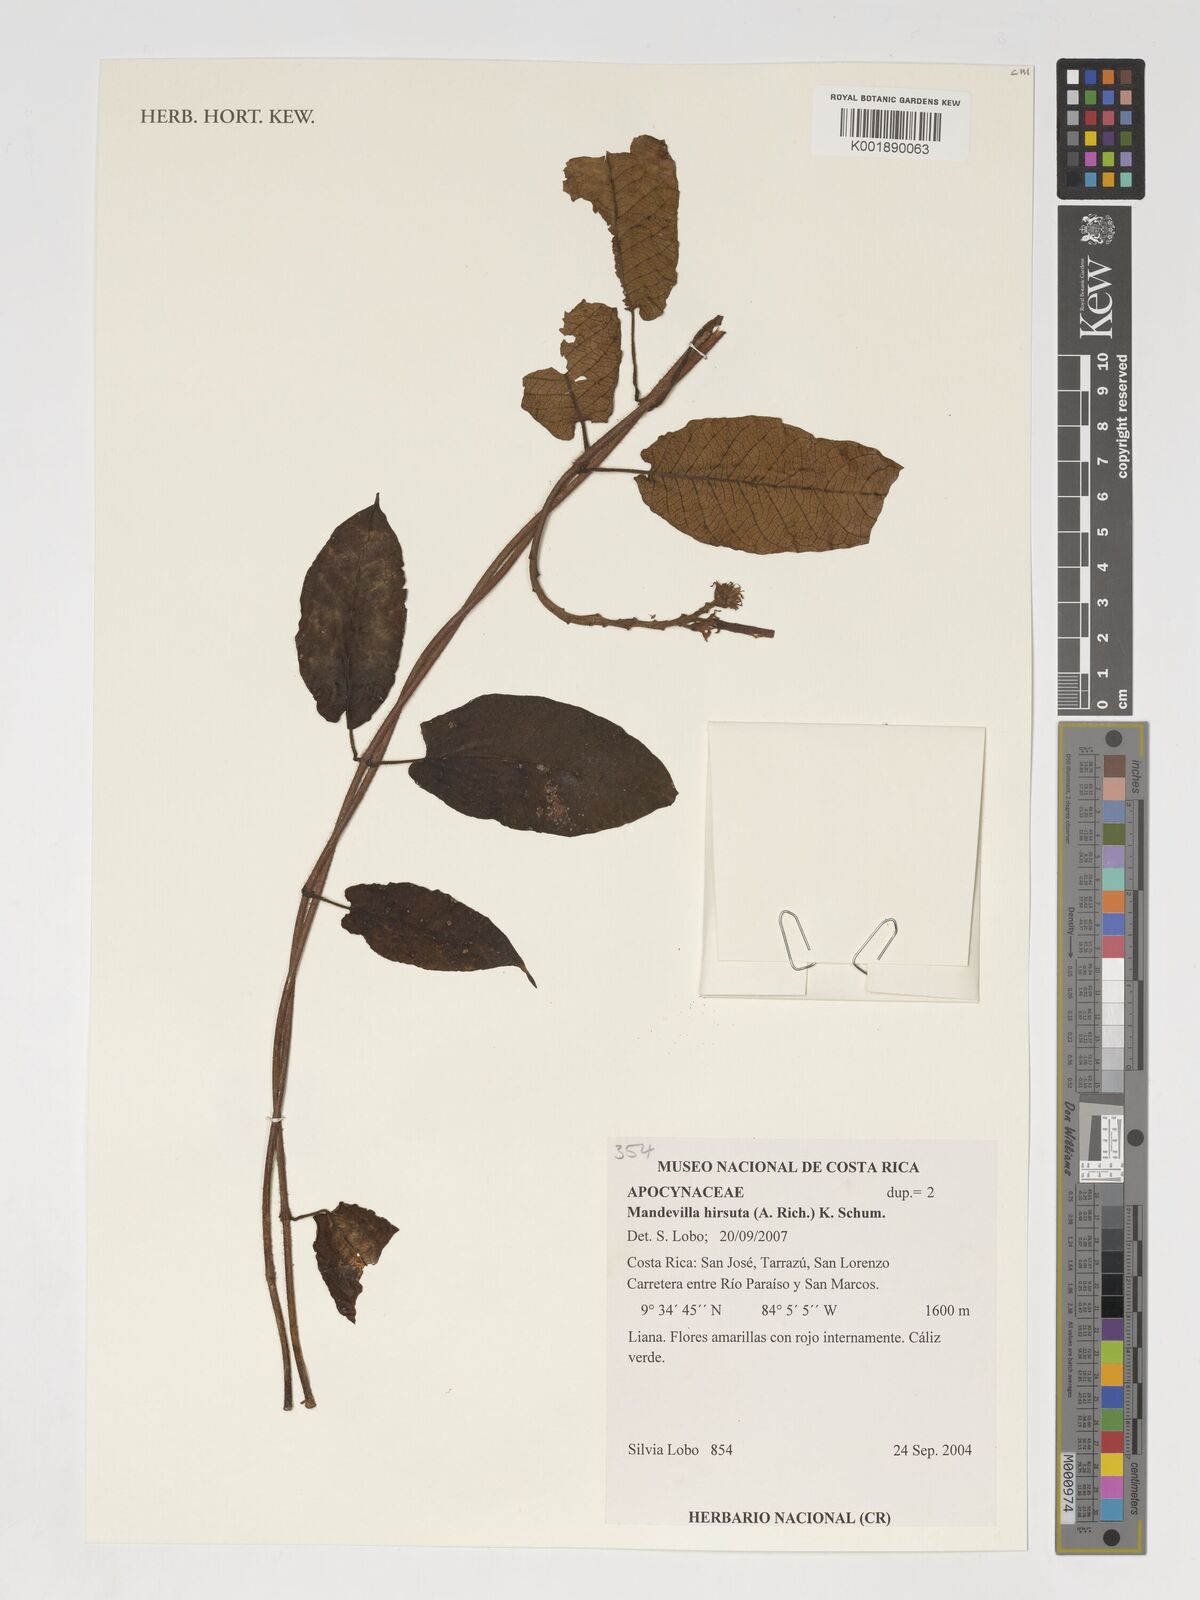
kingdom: Plantae
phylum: Tracheophyta
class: Magnoliopsida
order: Gentianales
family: Apocynaceae
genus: Mandevilla
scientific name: Mandevilla hirsuta
